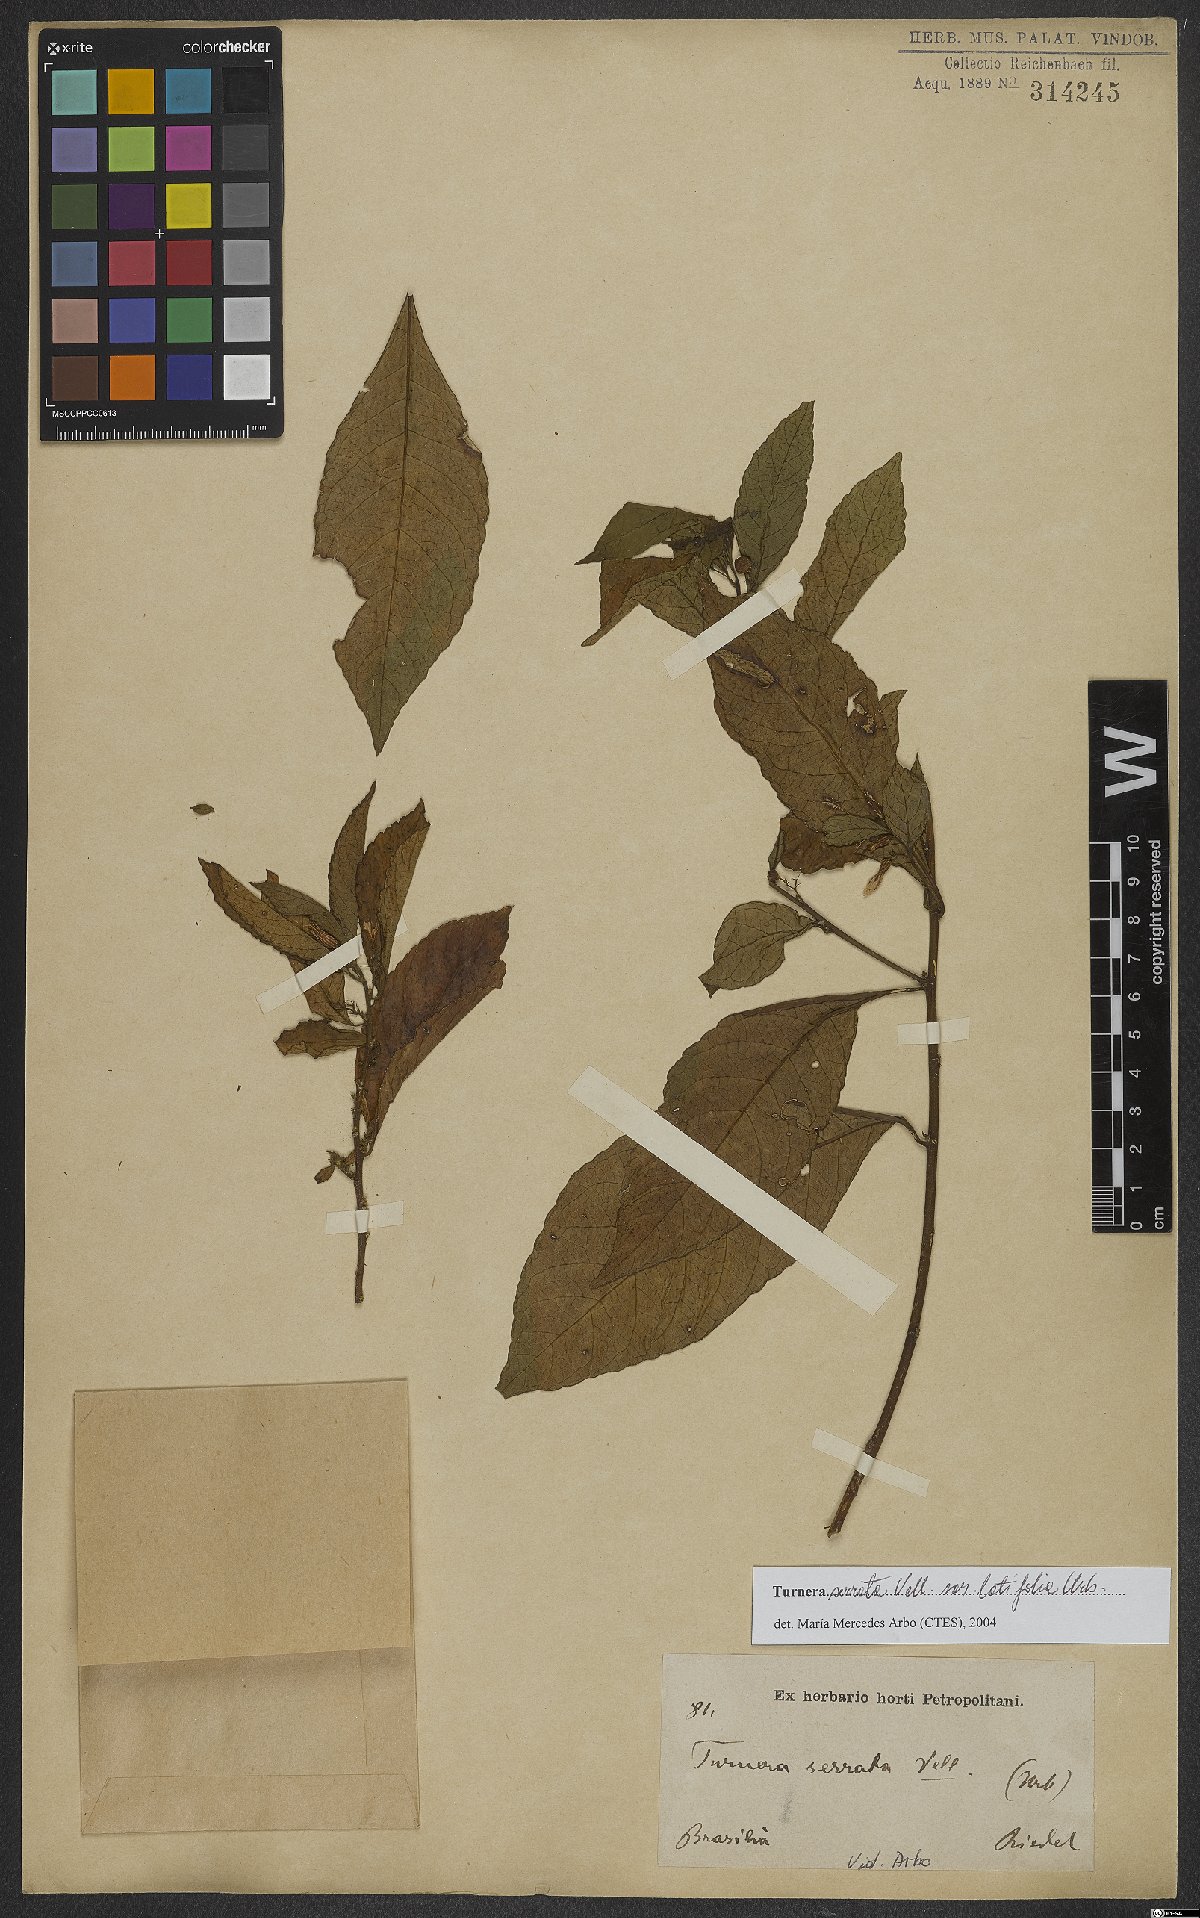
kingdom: Plantae
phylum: Tracheophyta
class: Magnoliopsida
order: Malpighiales
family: Turneraceae
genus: Turnera
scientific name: Turnera serrata
